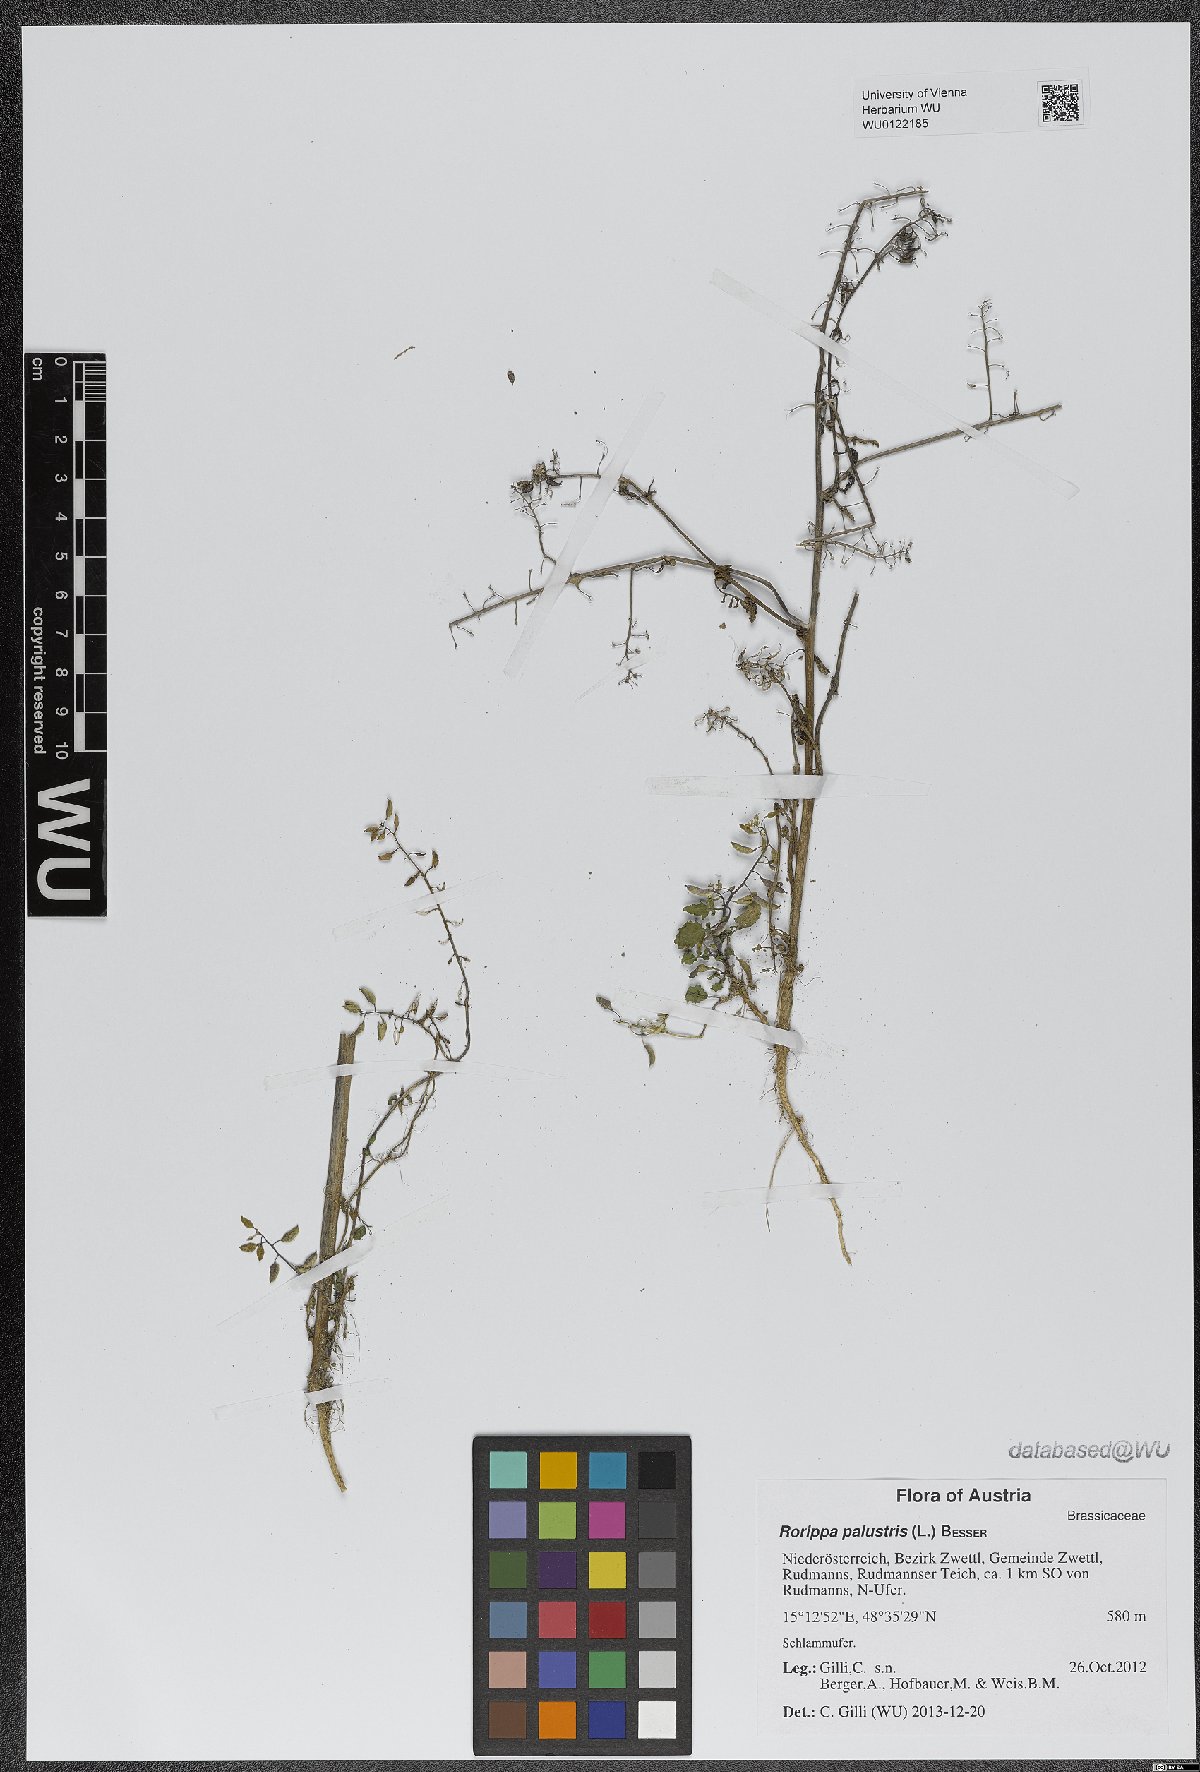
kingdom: Plantae
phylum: Tracheophyta
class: Magnoliopsida
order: Brassicales
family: Brassicaceae
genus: Rorippa
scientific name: Rorippa palustris
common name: Marsh yellow-cress
